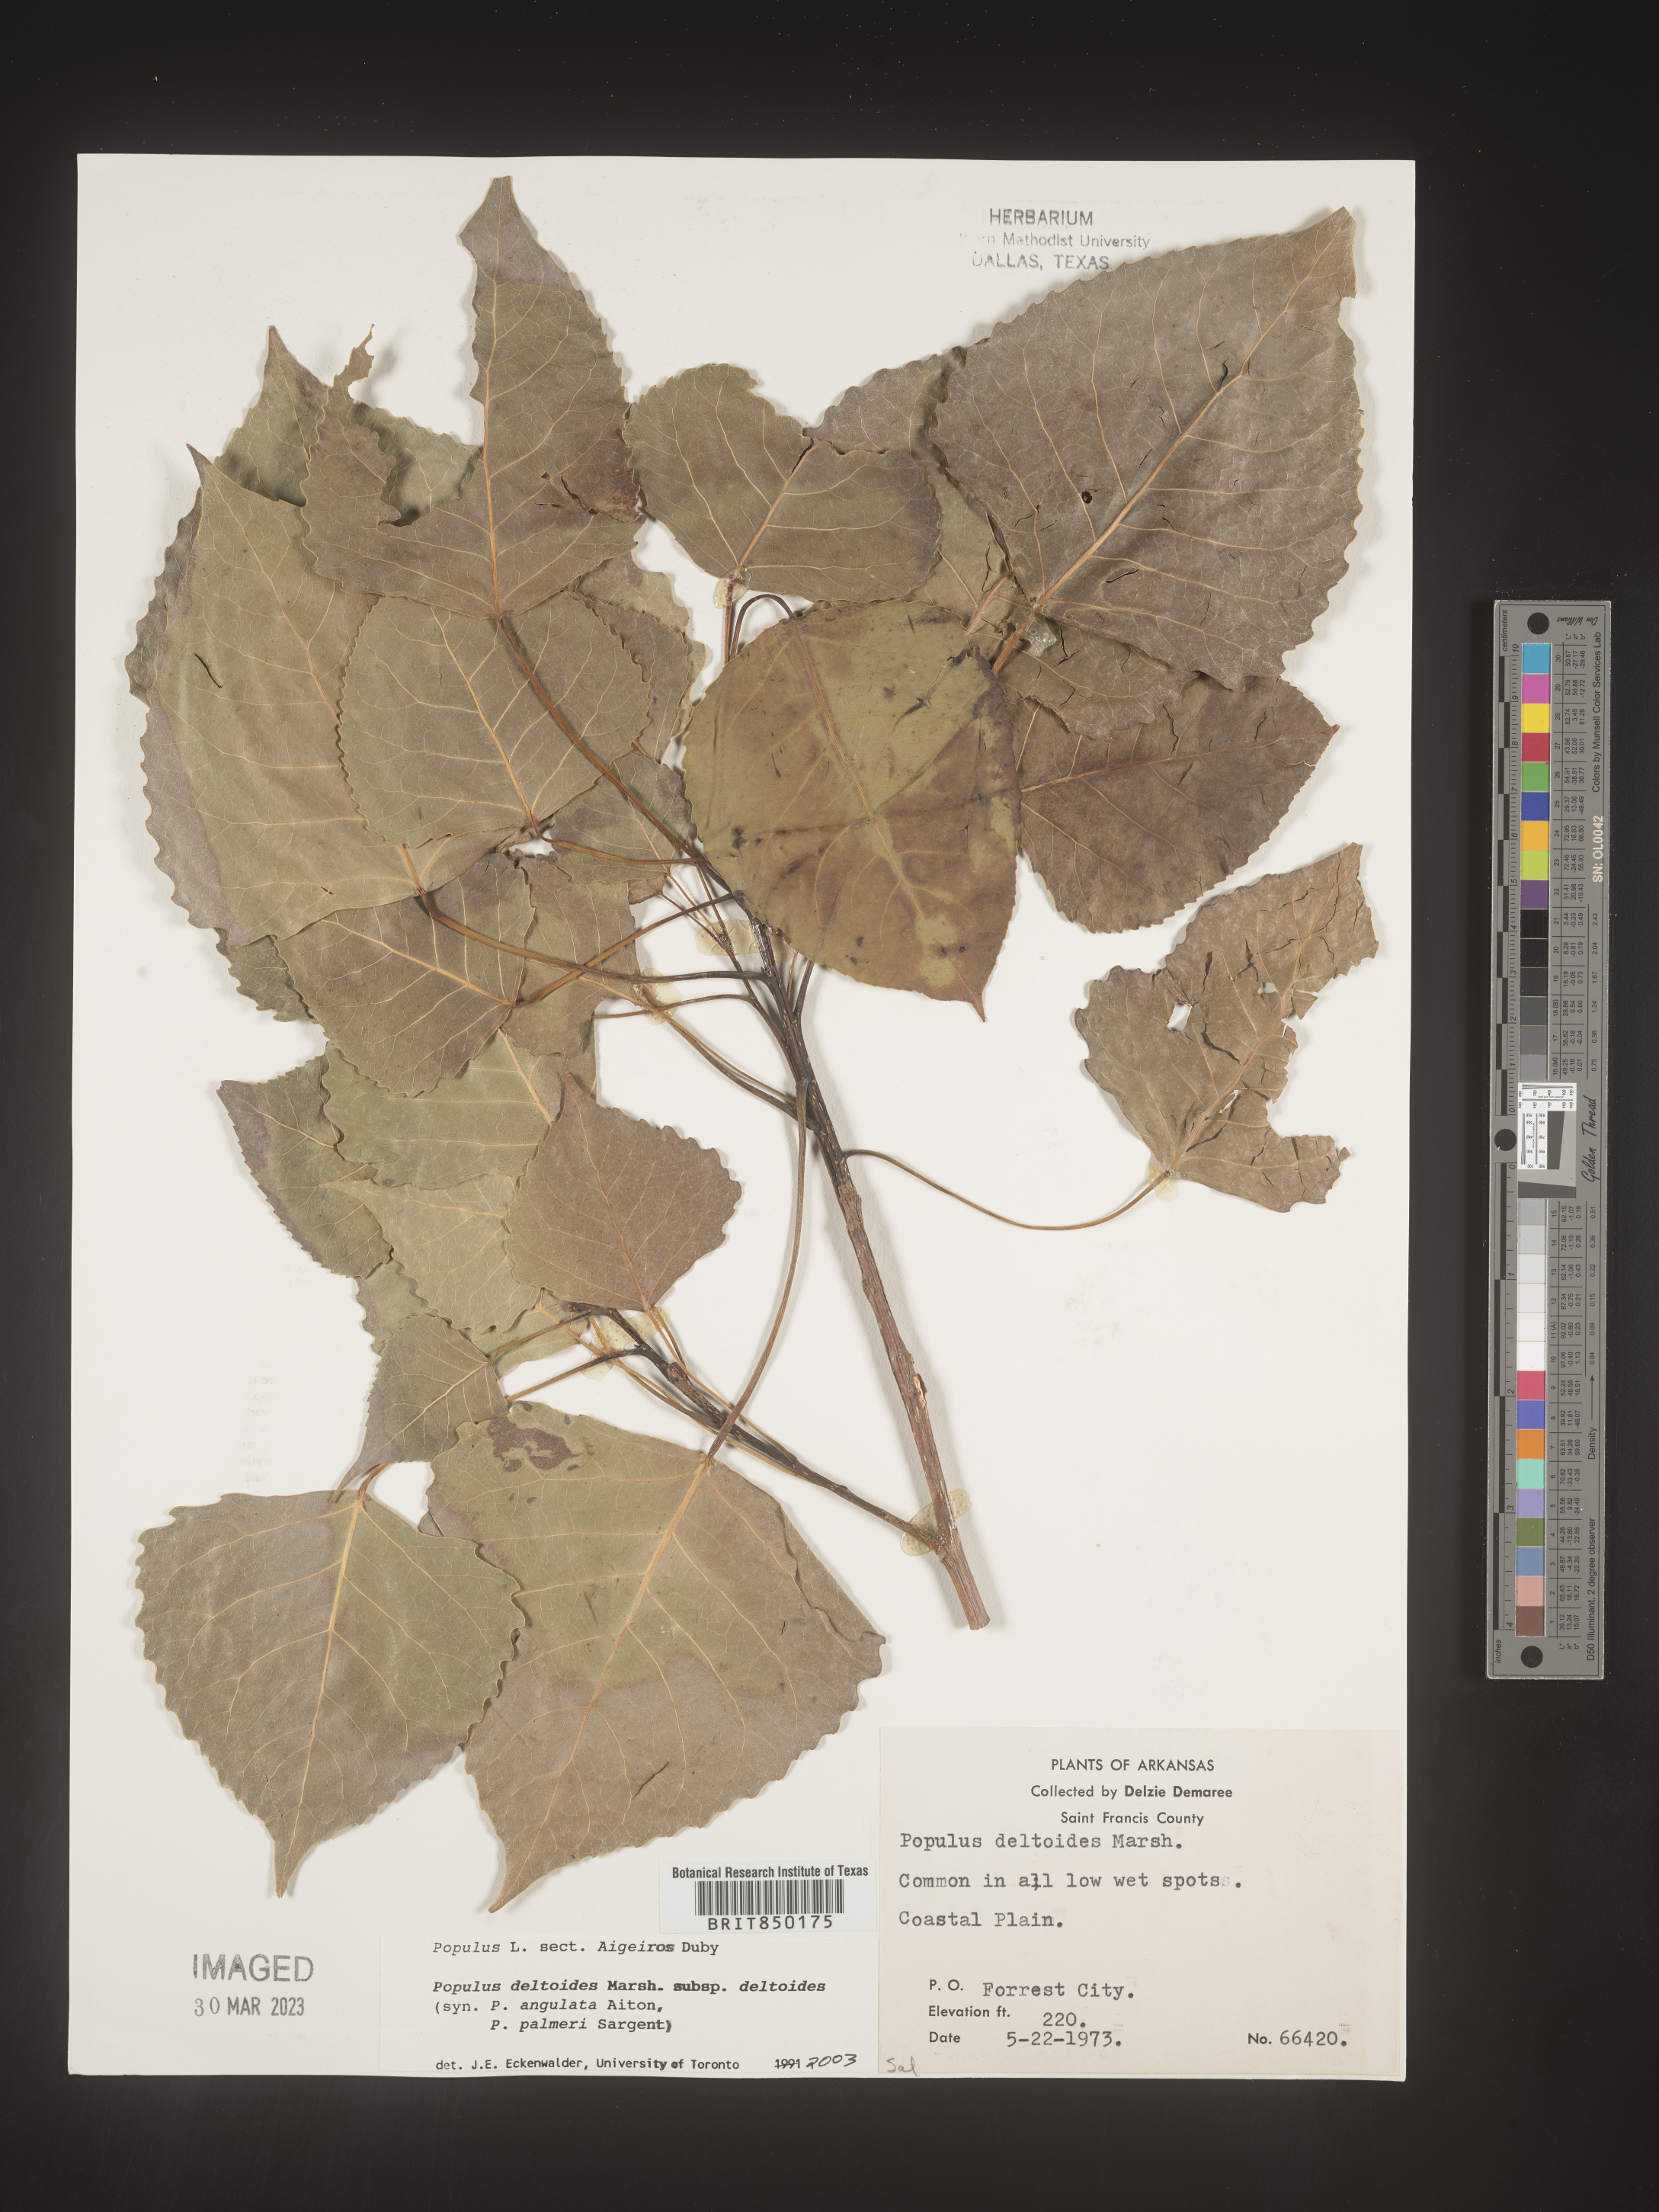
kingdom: Plantae
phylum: Tracheophyta
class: Magnoliopsida
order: Malpighiales
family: Salicaceae
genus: Populus
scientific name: Populus deltoides
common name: Eastern cottonwood
